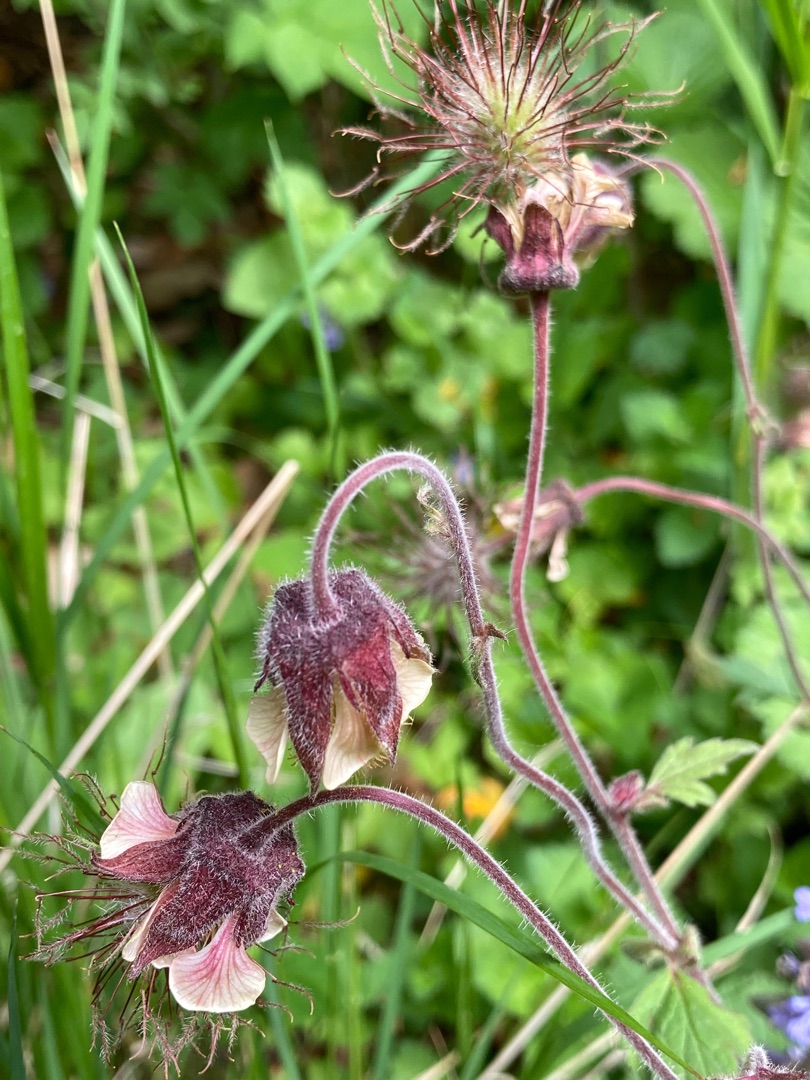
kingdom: Plantae
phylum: Tracheophyta
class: Magnoliopsida
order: Rosales
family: Rosaceae
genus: Geum
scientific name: Geum rivale
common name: Eng-nellikerod
